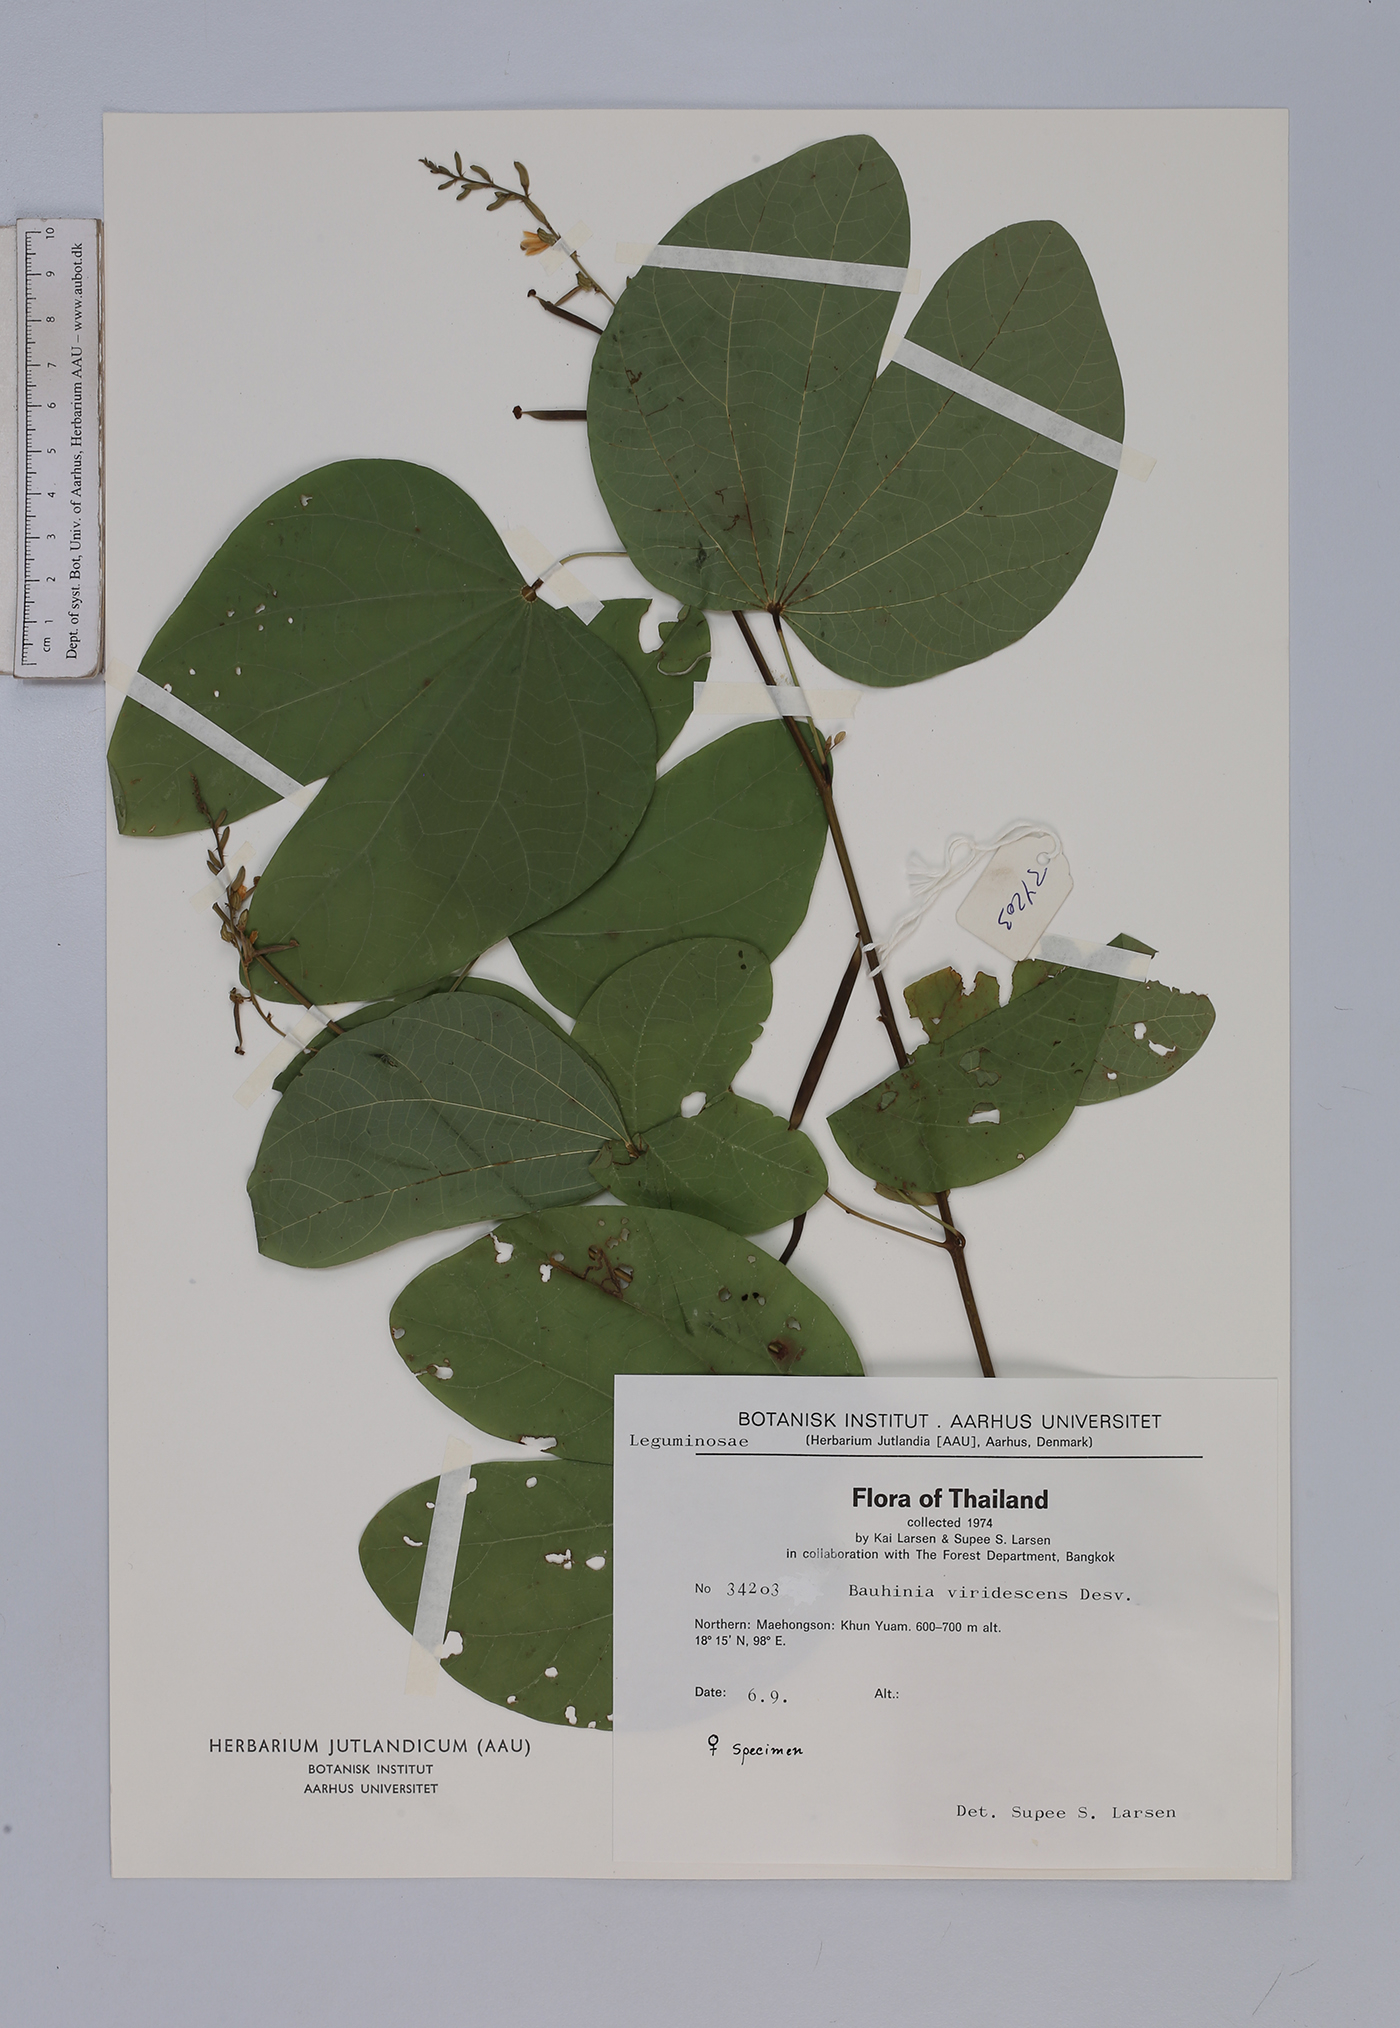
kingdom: Plantae
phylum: Tracheophyta
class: Magnoliopsida
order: Fabales
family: Fabaceae
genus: Bauhinia
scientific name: Bauhinia viridescens
